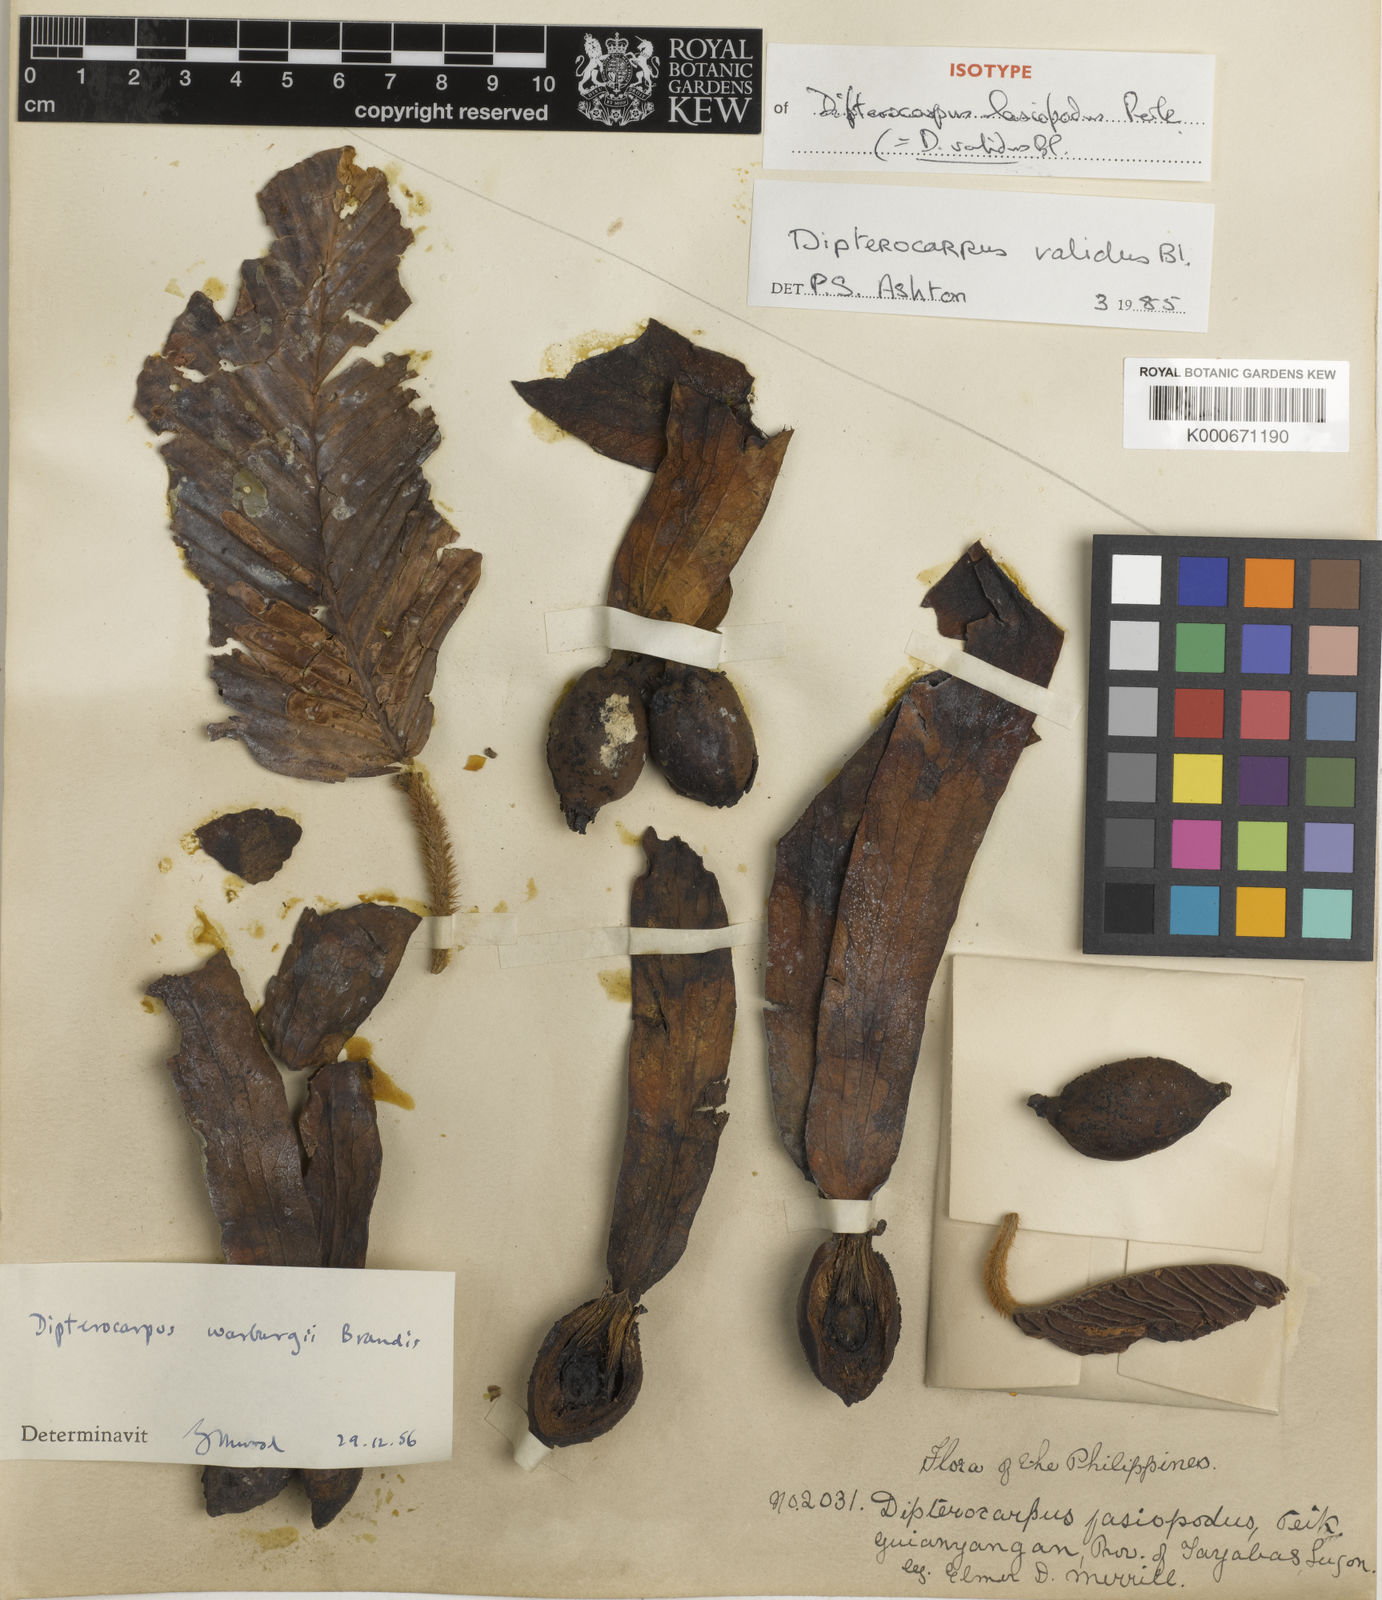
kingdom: Plantae
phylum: Tracheophyta
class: Magnoliopsida
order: Malvales
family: Dipterocarpaceae
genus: Dipterocarpus
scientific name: Dipterocarpus validus
